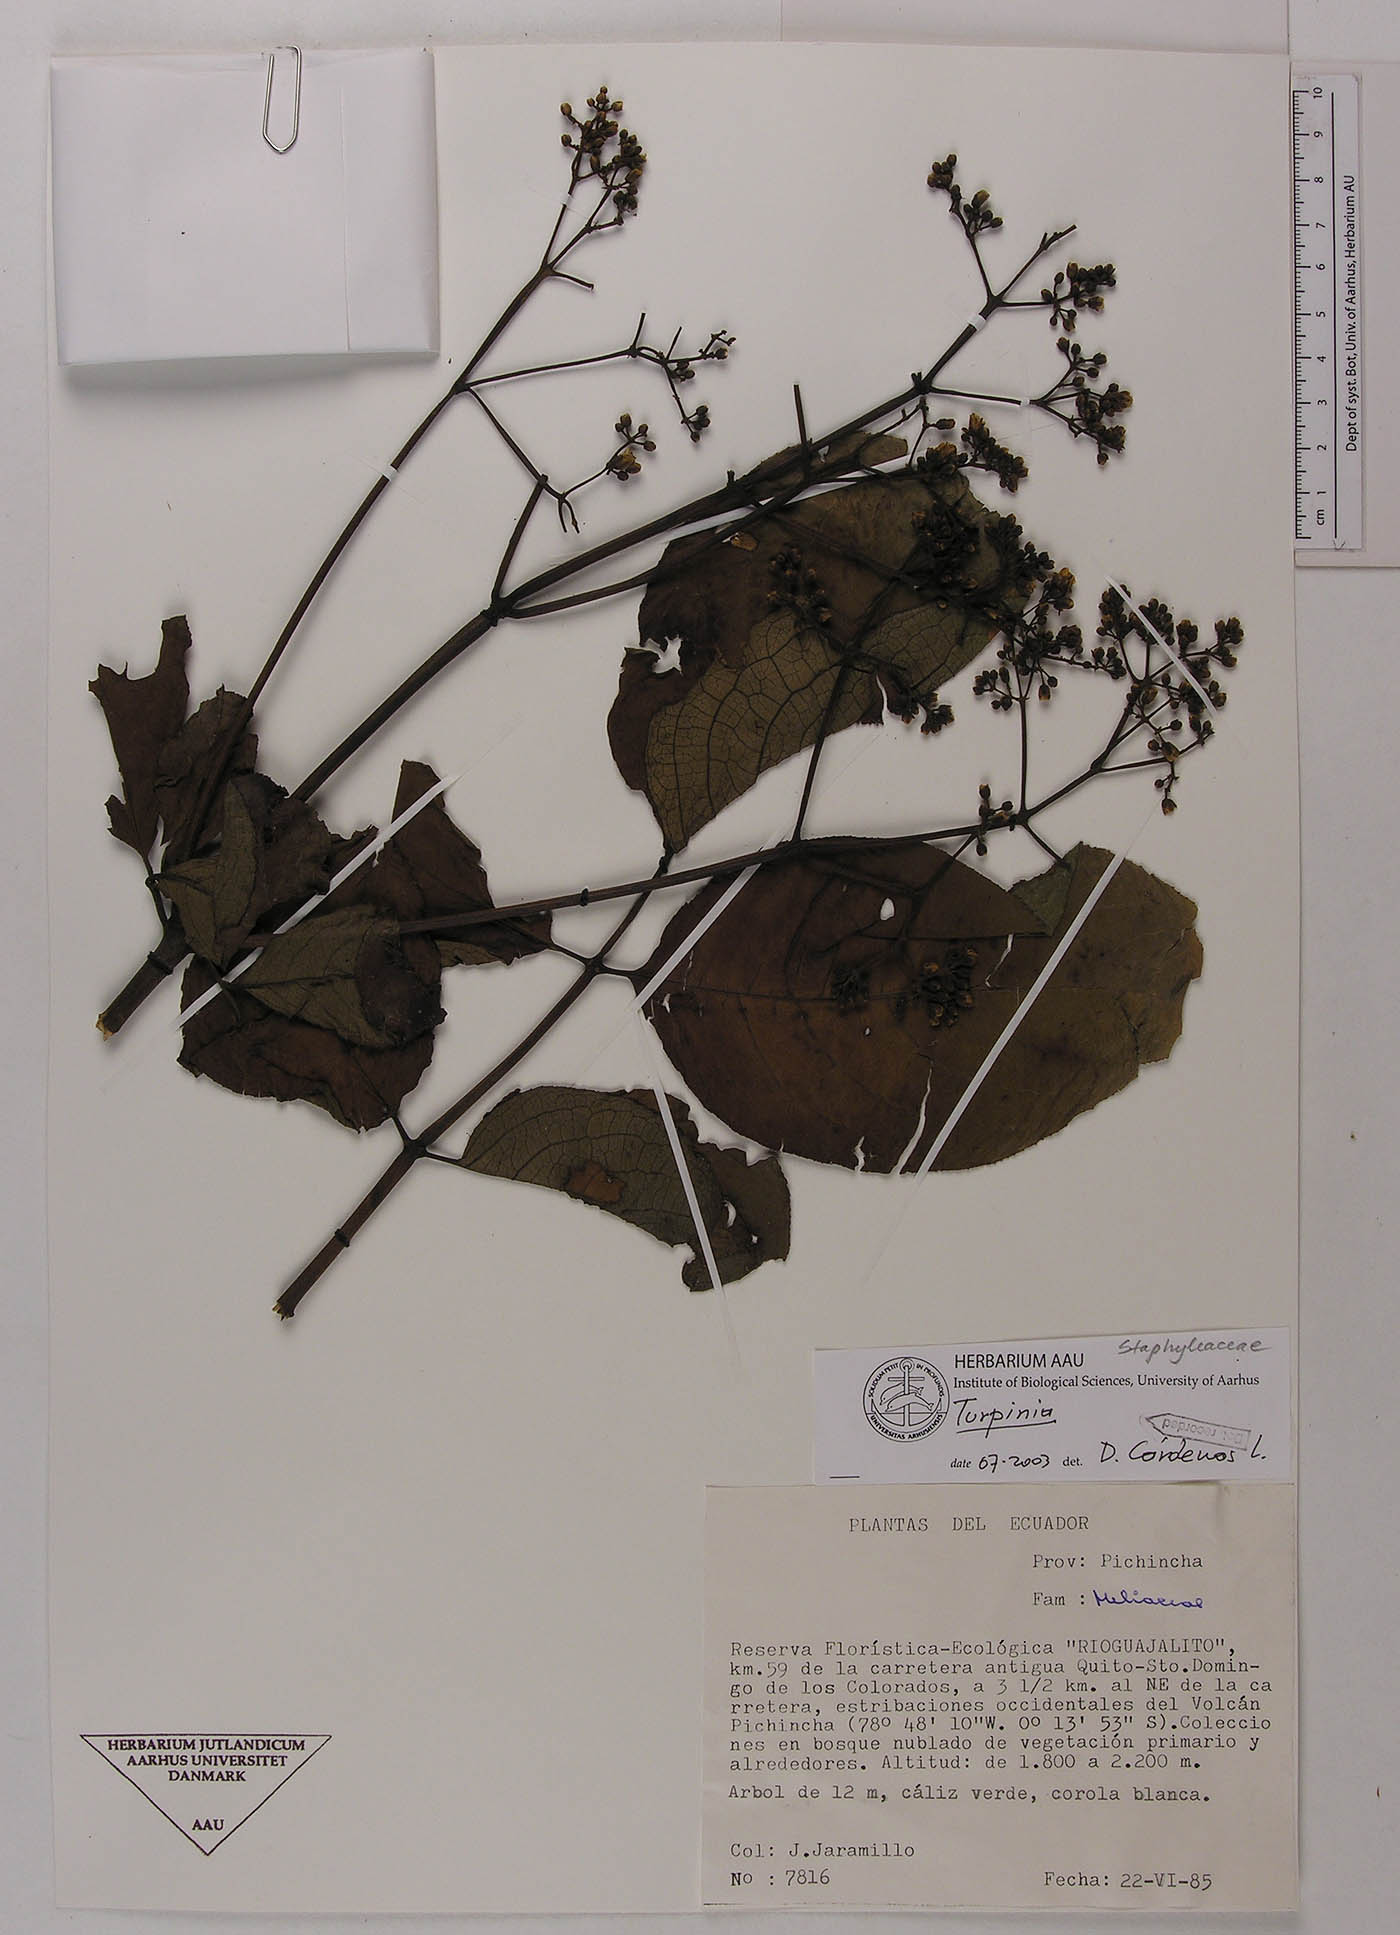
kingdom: Plantae
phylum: Tracheophyta
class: Magnoliopsida
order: Crossosomatales
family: Staphyleaceae
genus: Turpinia
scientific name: Turpinia megaphylla
